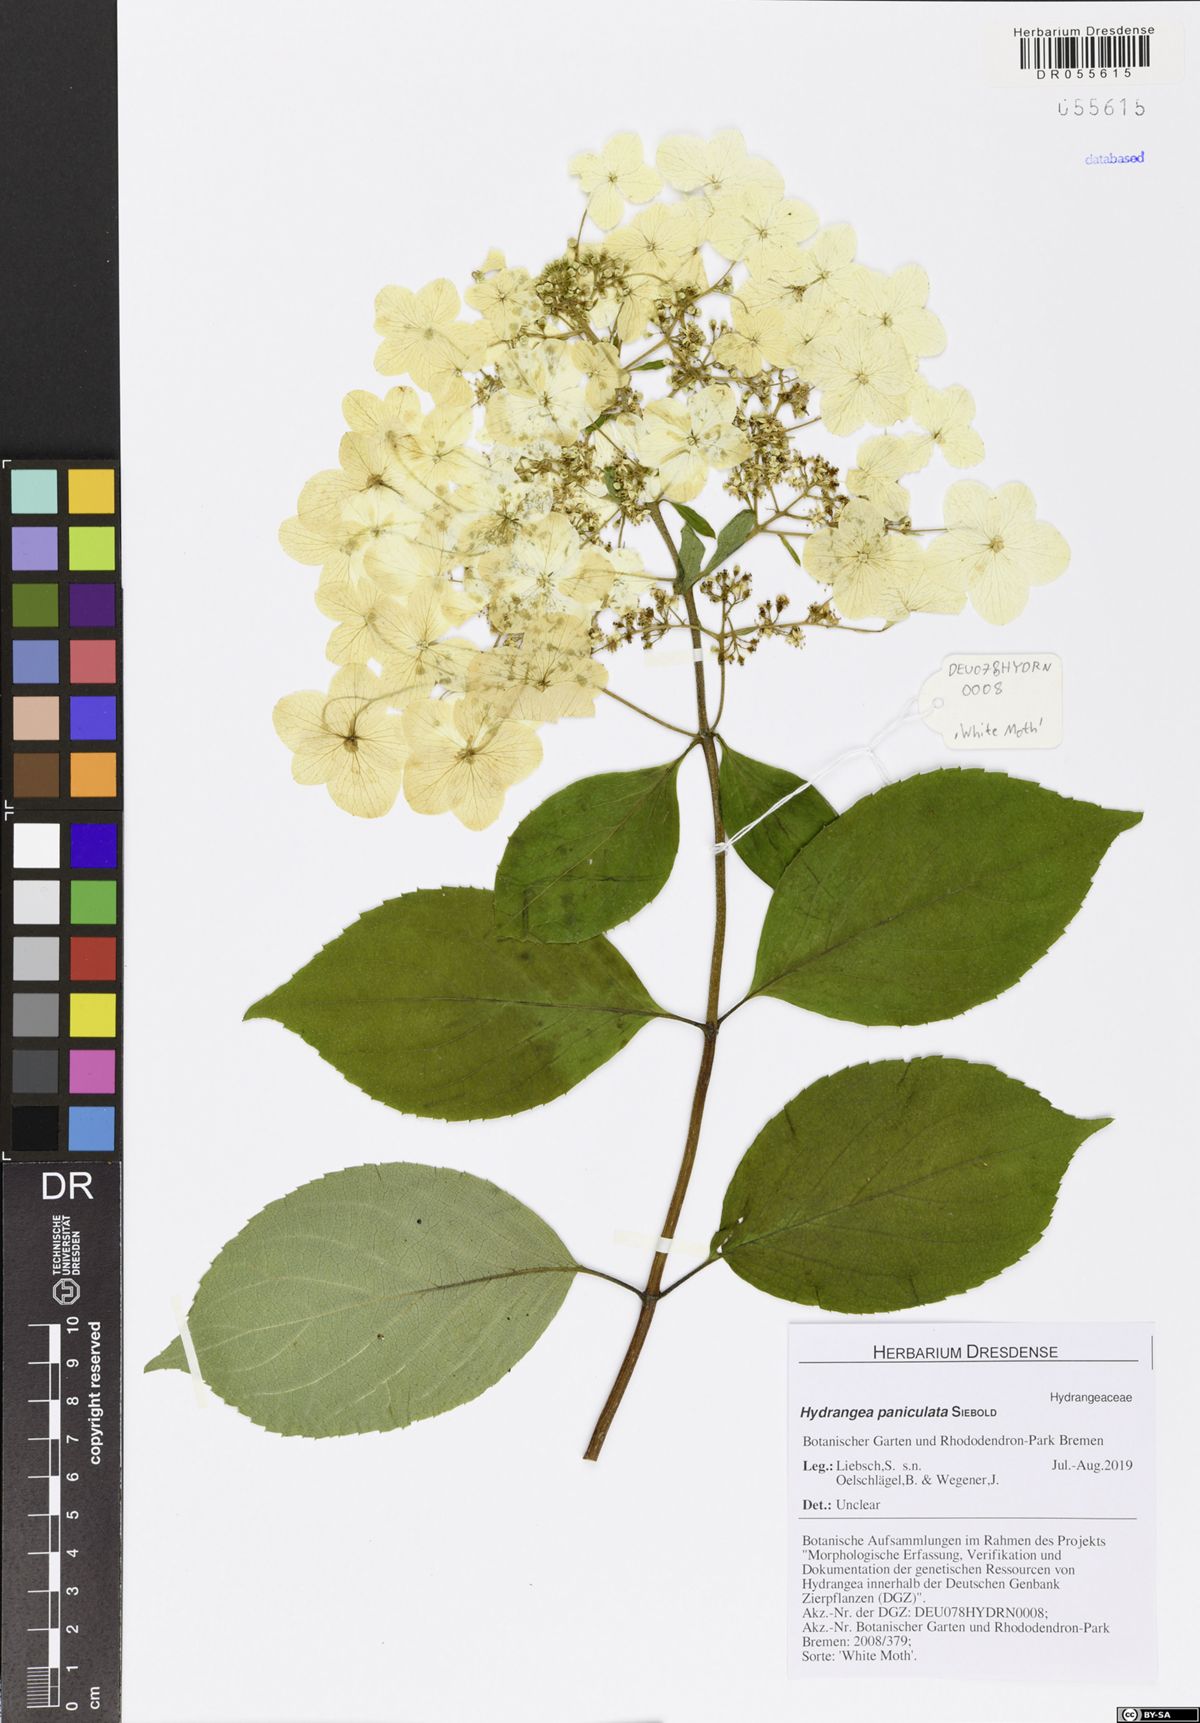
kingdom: Plantae
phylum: Tracheophyta
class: Magnoliopsida
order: Cornales
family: Hydrangeaceae
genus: Hydrangea
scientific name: Hydrangea paniculata
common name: Panicled hydrangea
